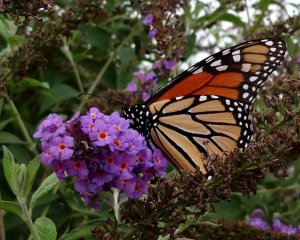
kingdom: Animalia
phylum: Arthropoda
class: Insecta
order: Lepidoptera
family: Nymphalidae
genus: Danaus
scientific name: Danaus plexippus
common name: Monarch
